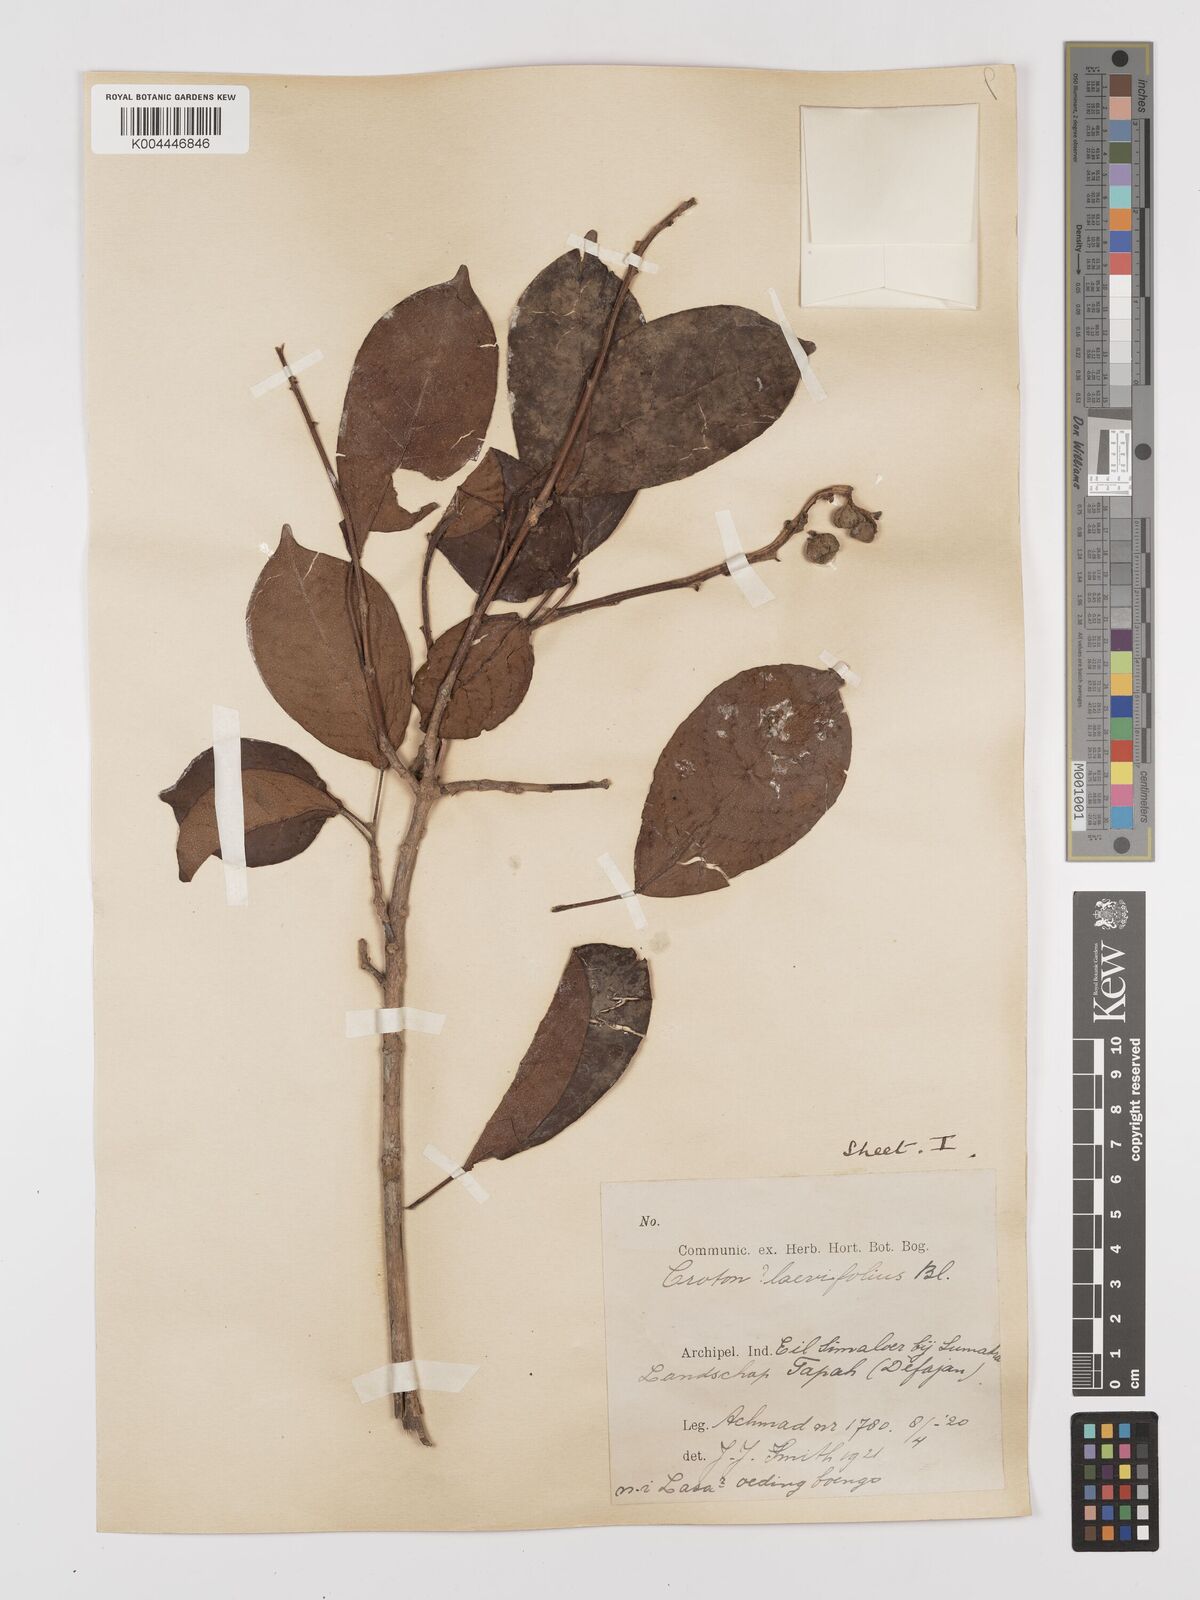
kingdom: Plantae
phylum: Tracheophyta
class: Magnoliopsida
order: Malpighiales
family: Euphorbiaceae
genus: Croton
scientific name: Croton oblongus
